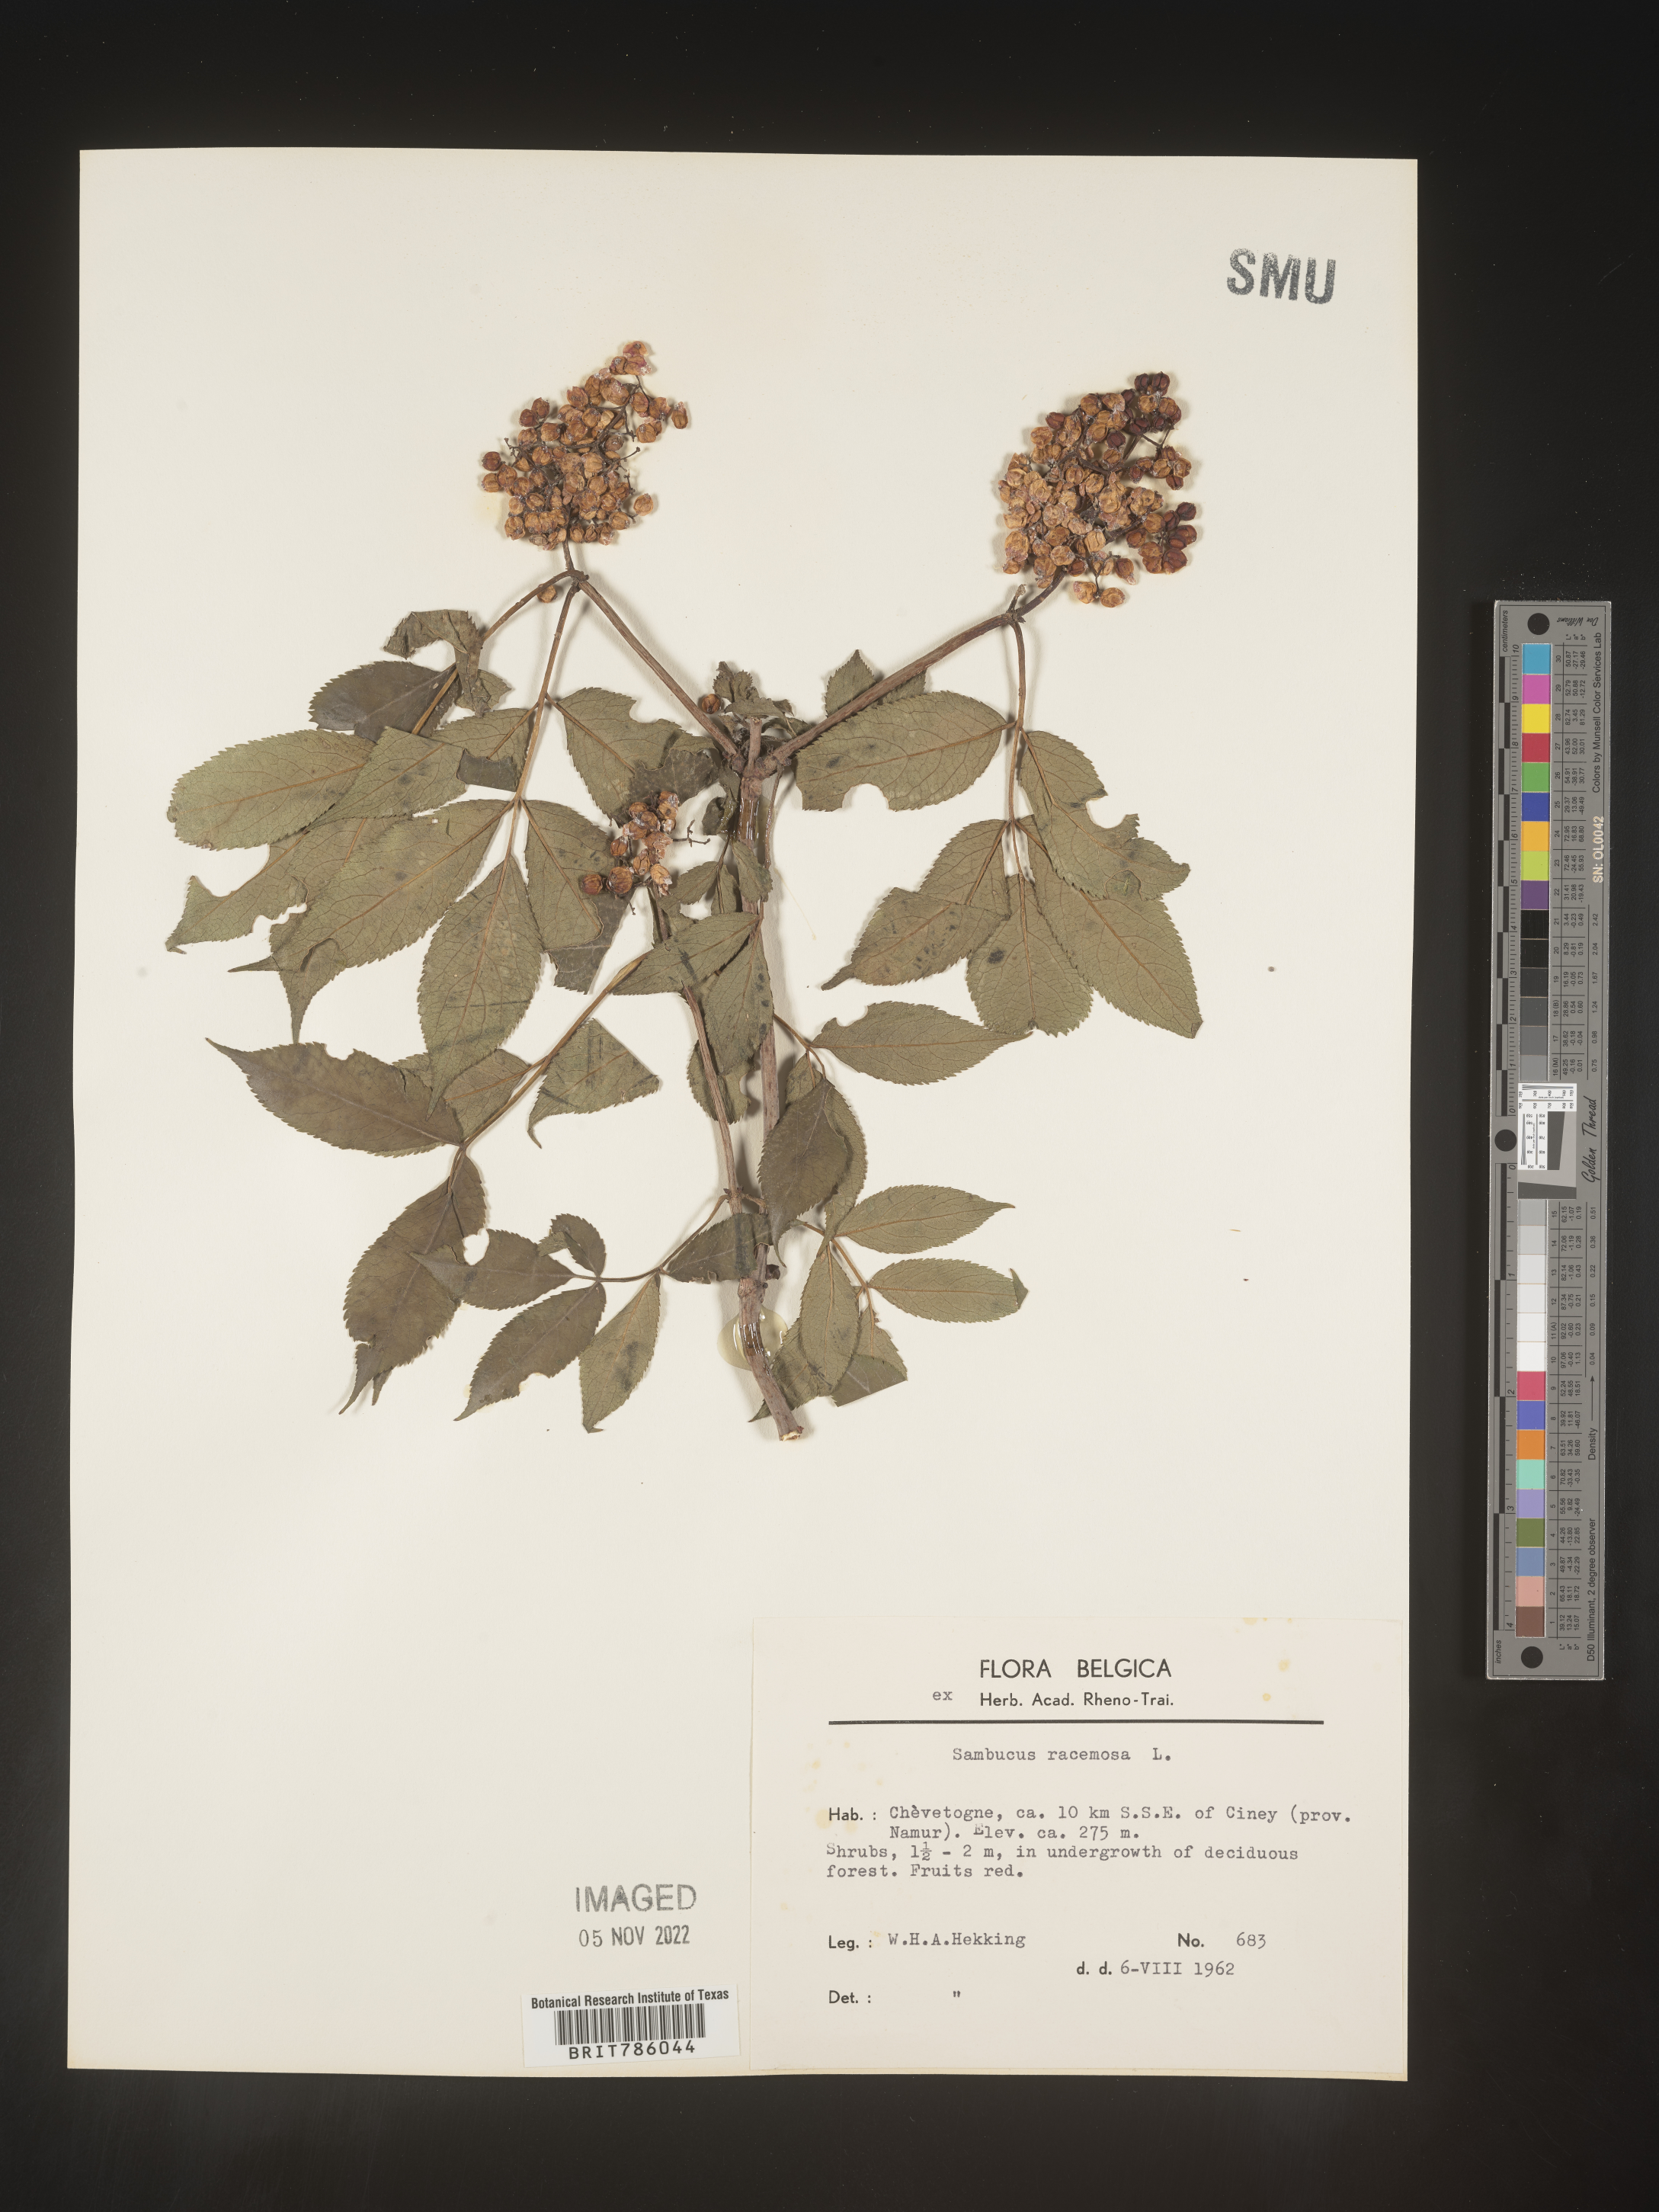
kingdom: Plantae
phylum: Tracheophyta
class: Magnoliopsida
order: Dipsacales
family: Viburnaceae
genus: Sambucus
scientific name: Sambucus
